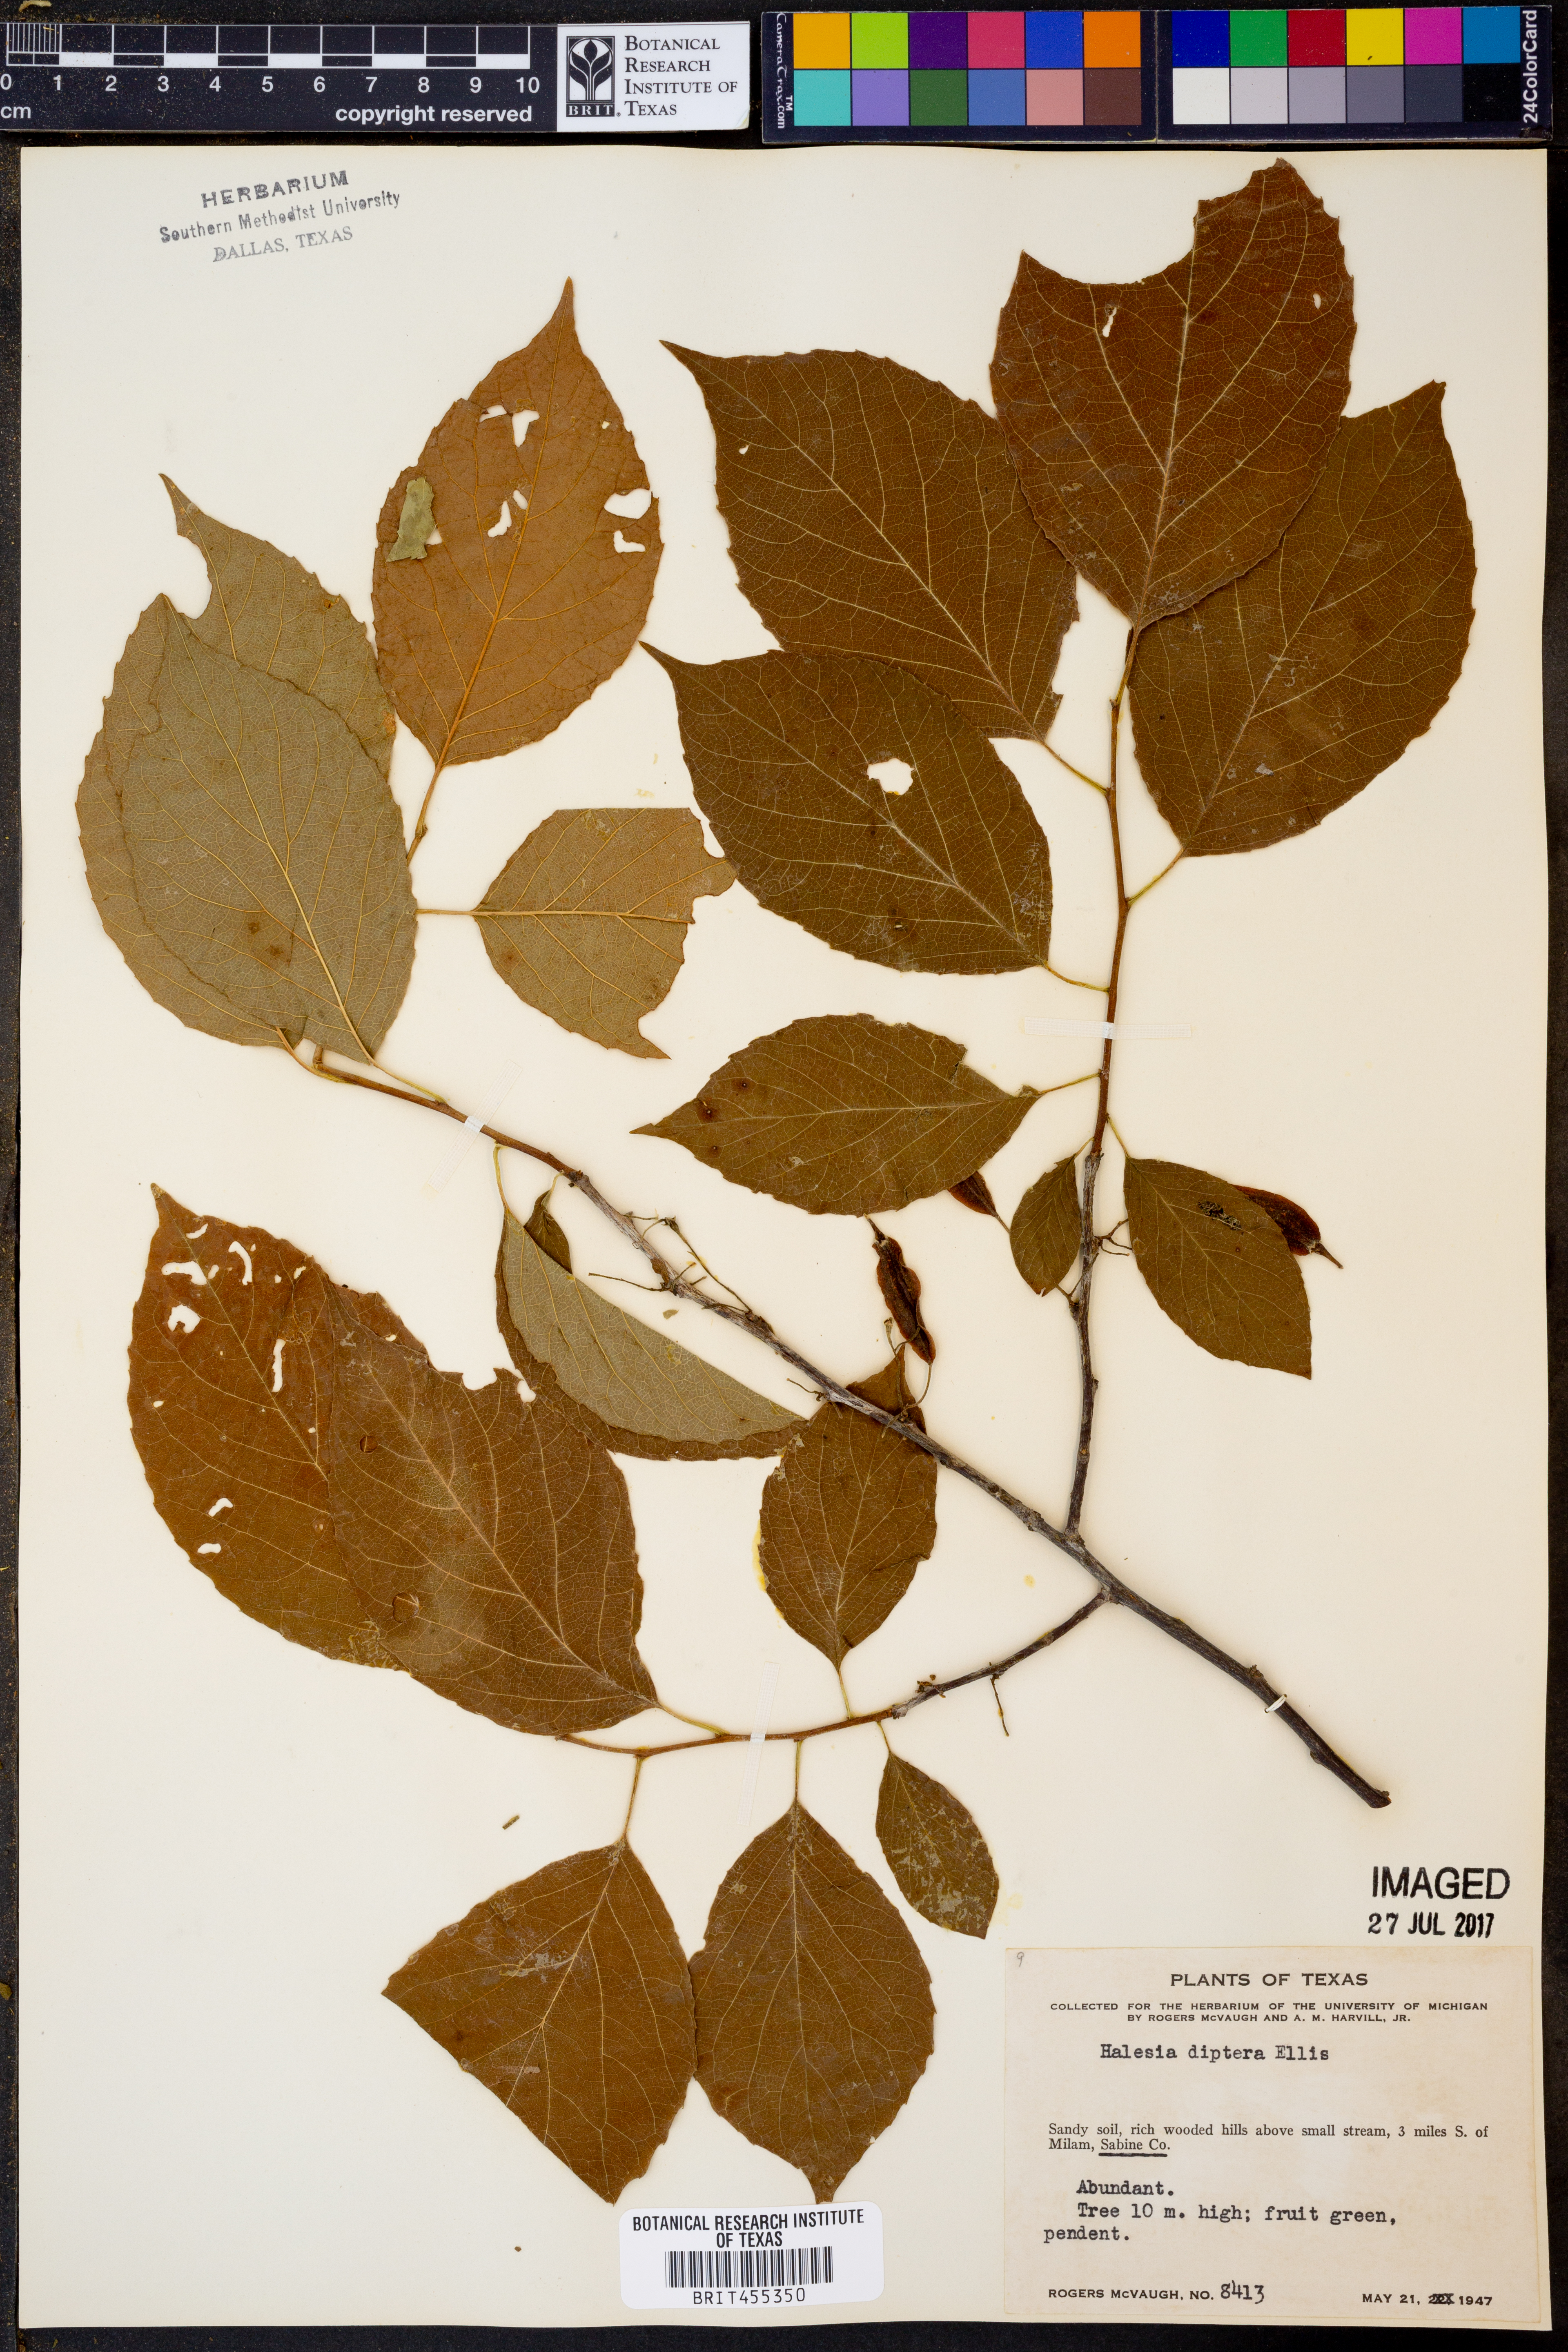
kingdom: Plantae
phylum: Tracheophyta
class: Magnoliopsida
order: Ericales
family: Styracaceae
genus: Halesia
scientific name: Halesia diptera
